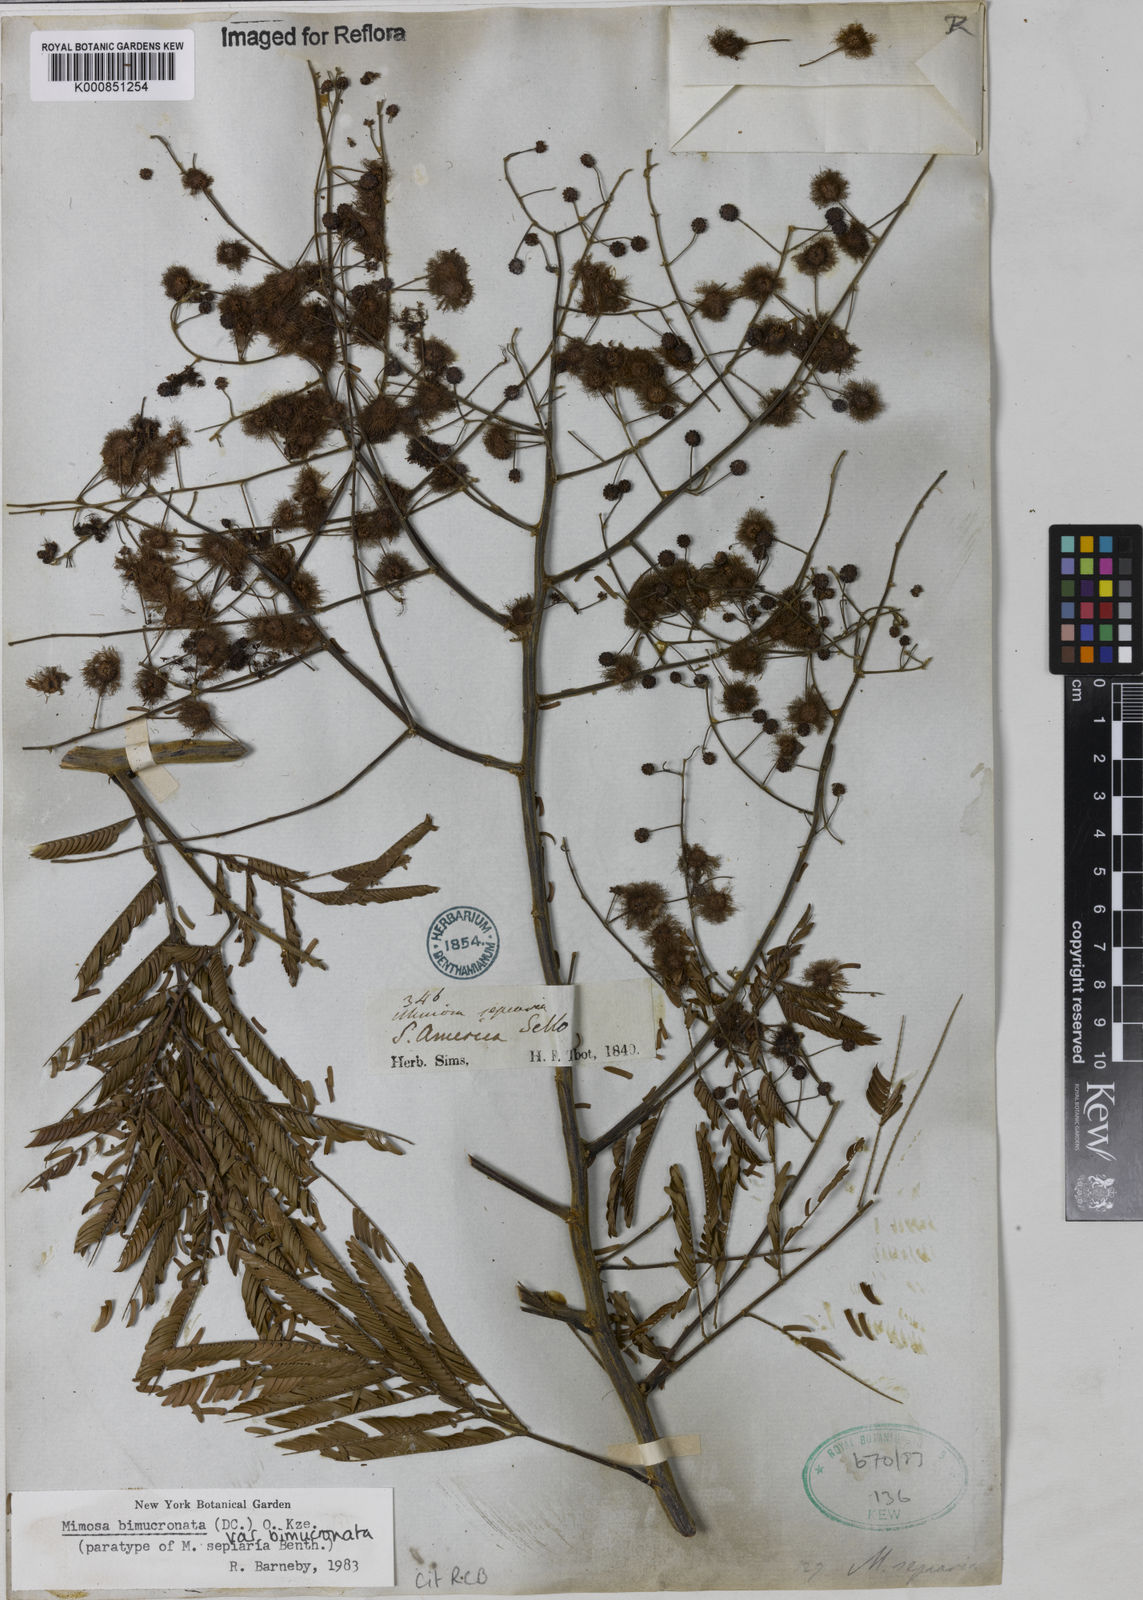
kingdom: Plantae
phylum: Tracheophyta
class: Magnoliopsida
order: Fabales
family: Fabaceae
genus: Mimosa
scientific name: Mimosa bimucronata
